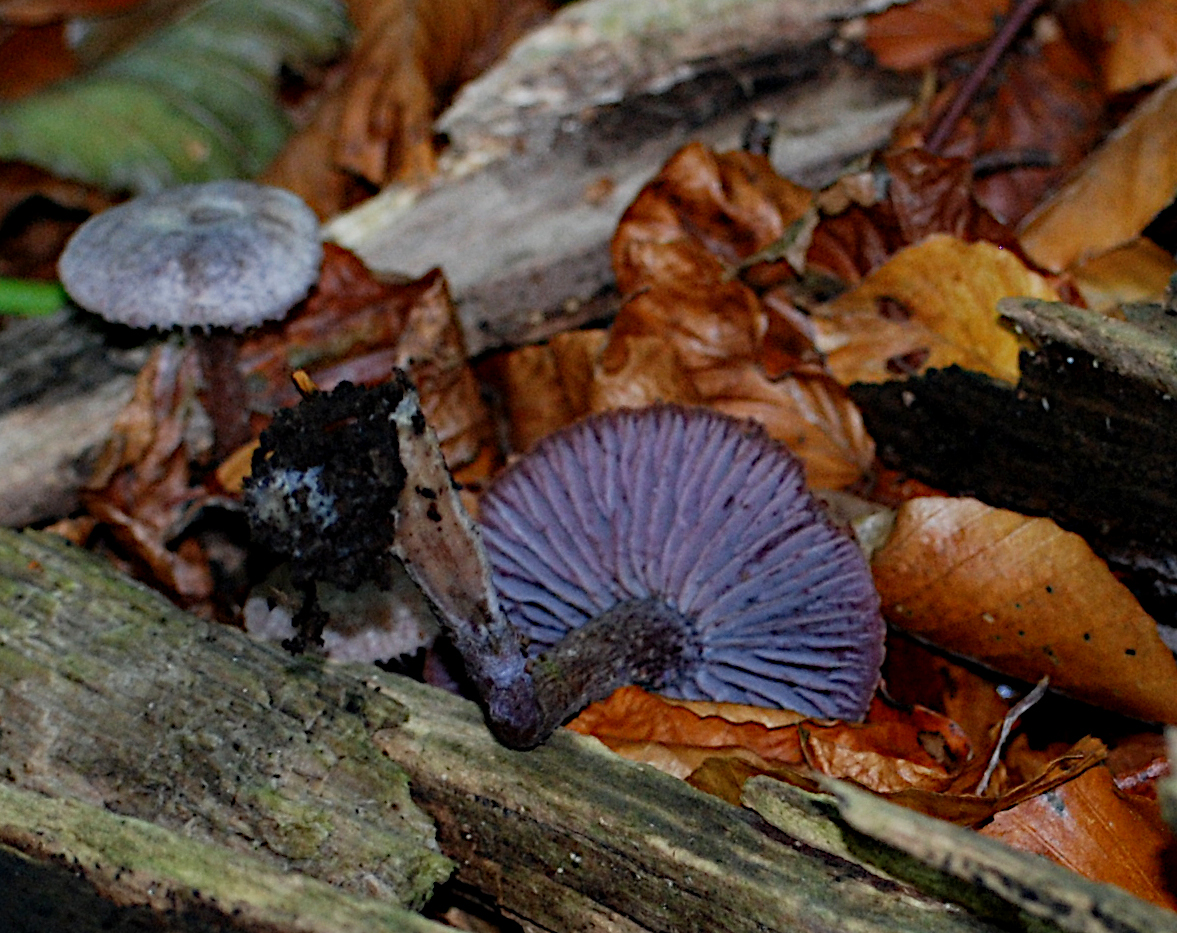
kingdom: Fungi
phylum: Basidiomycota
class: Agaricomycetes
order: Agaricales
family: Hydnangiaceae
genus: Laccaria
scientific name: Laccaria amethystina
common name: violet ametysthat
